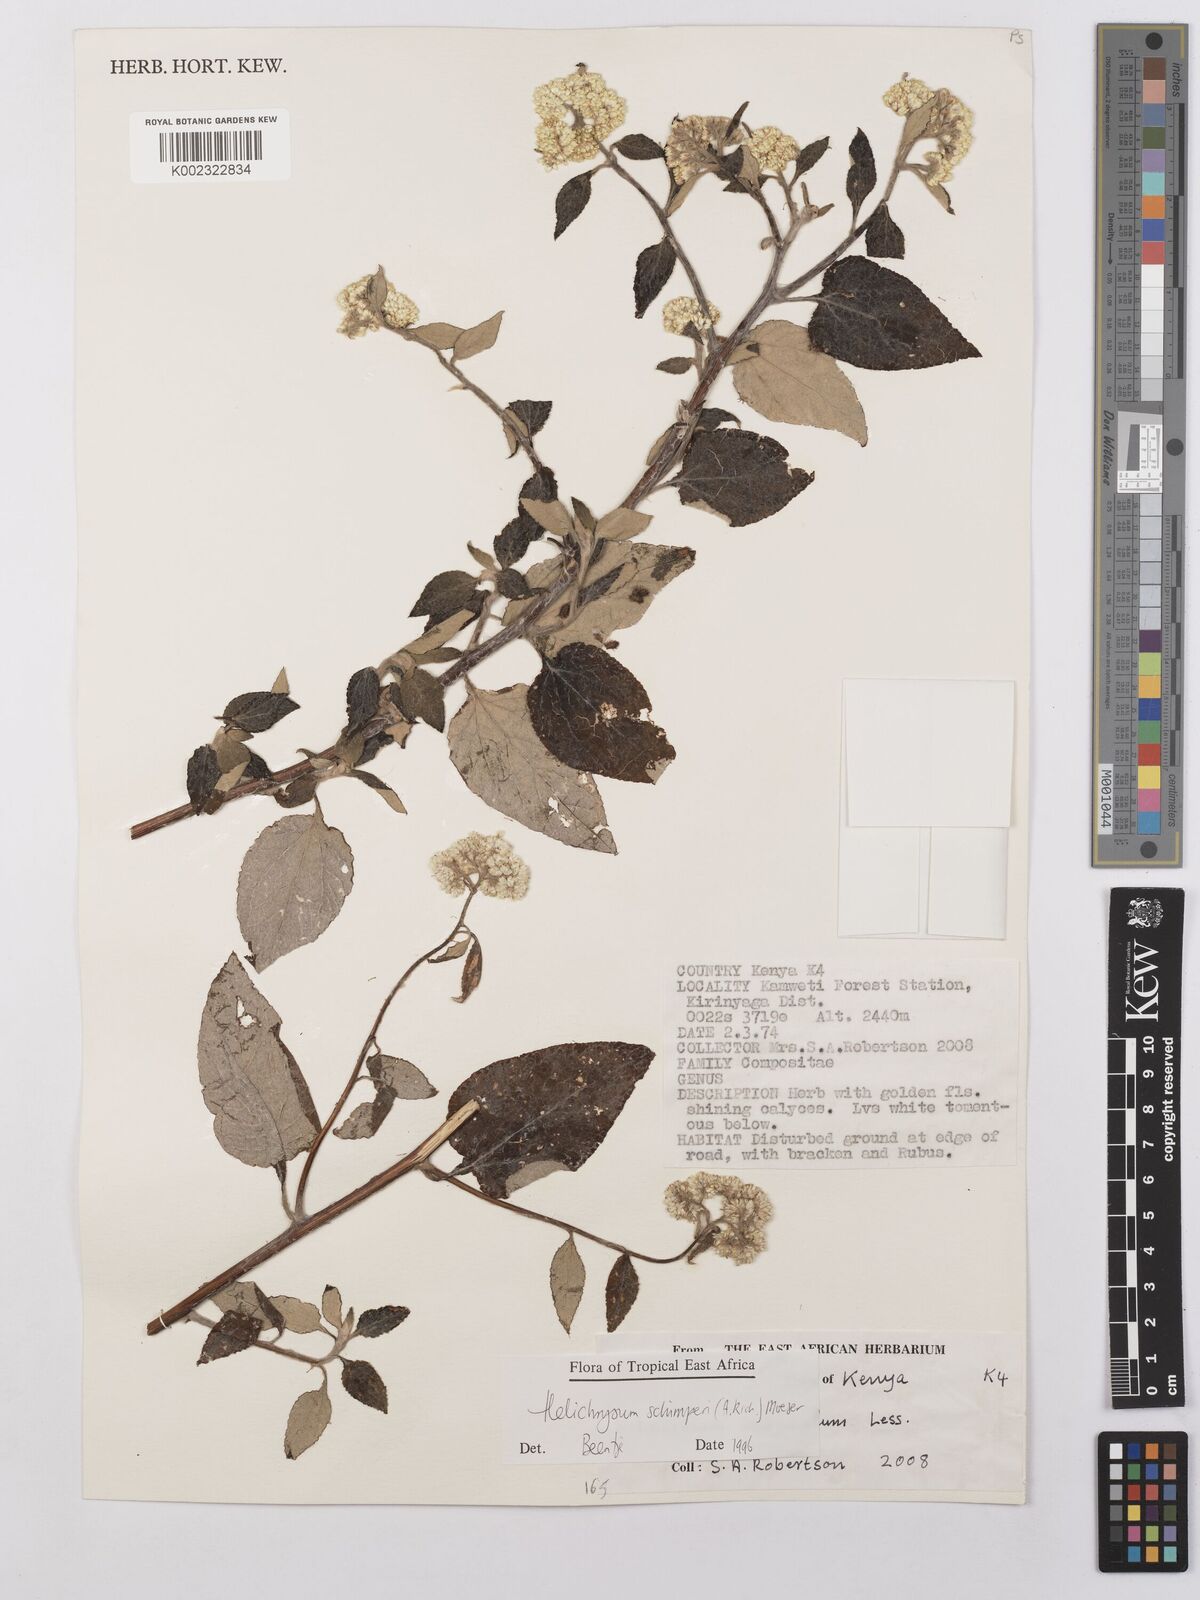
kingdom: Plantae
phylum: Tracheophyta
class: Magnoliopsida
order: Asterales
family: Asteraceae
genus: Helichrysum
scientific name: Helichrysum schimperi
